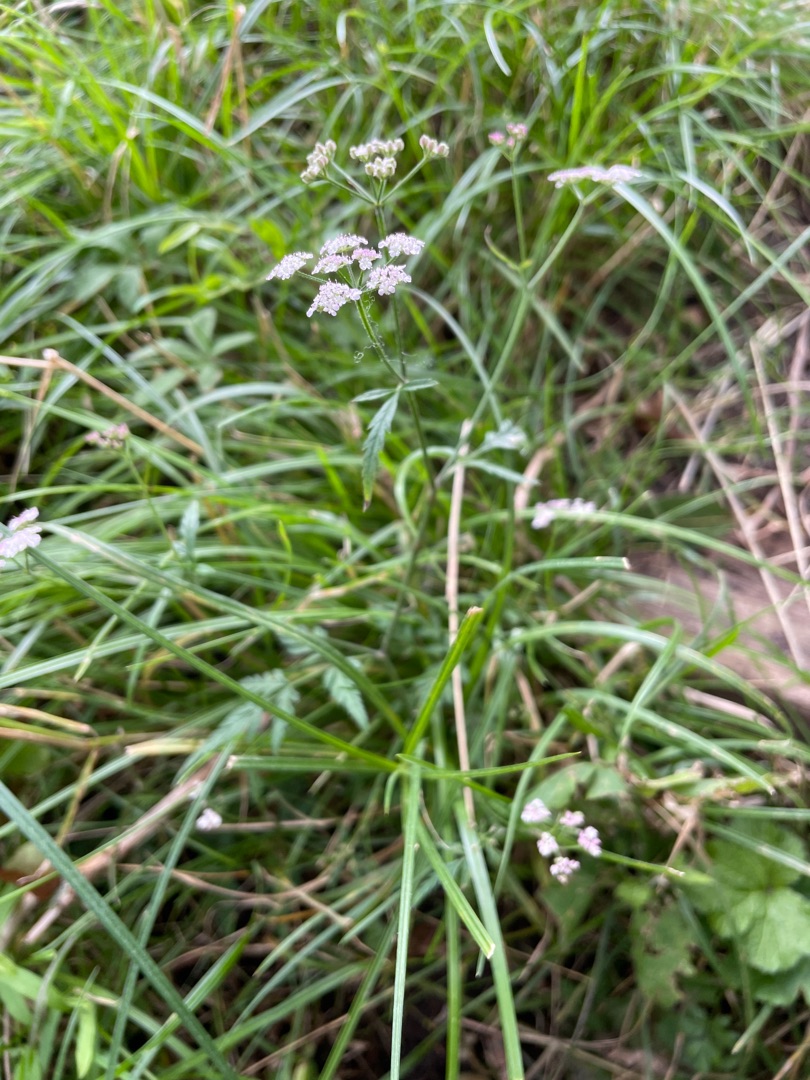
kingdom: Plantae
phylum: Tracheophyta
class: Magnoliopsida
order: Apiales
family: Apiaceae
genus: Torilis
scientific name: Torilis japonica
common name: Hvas randfrø
